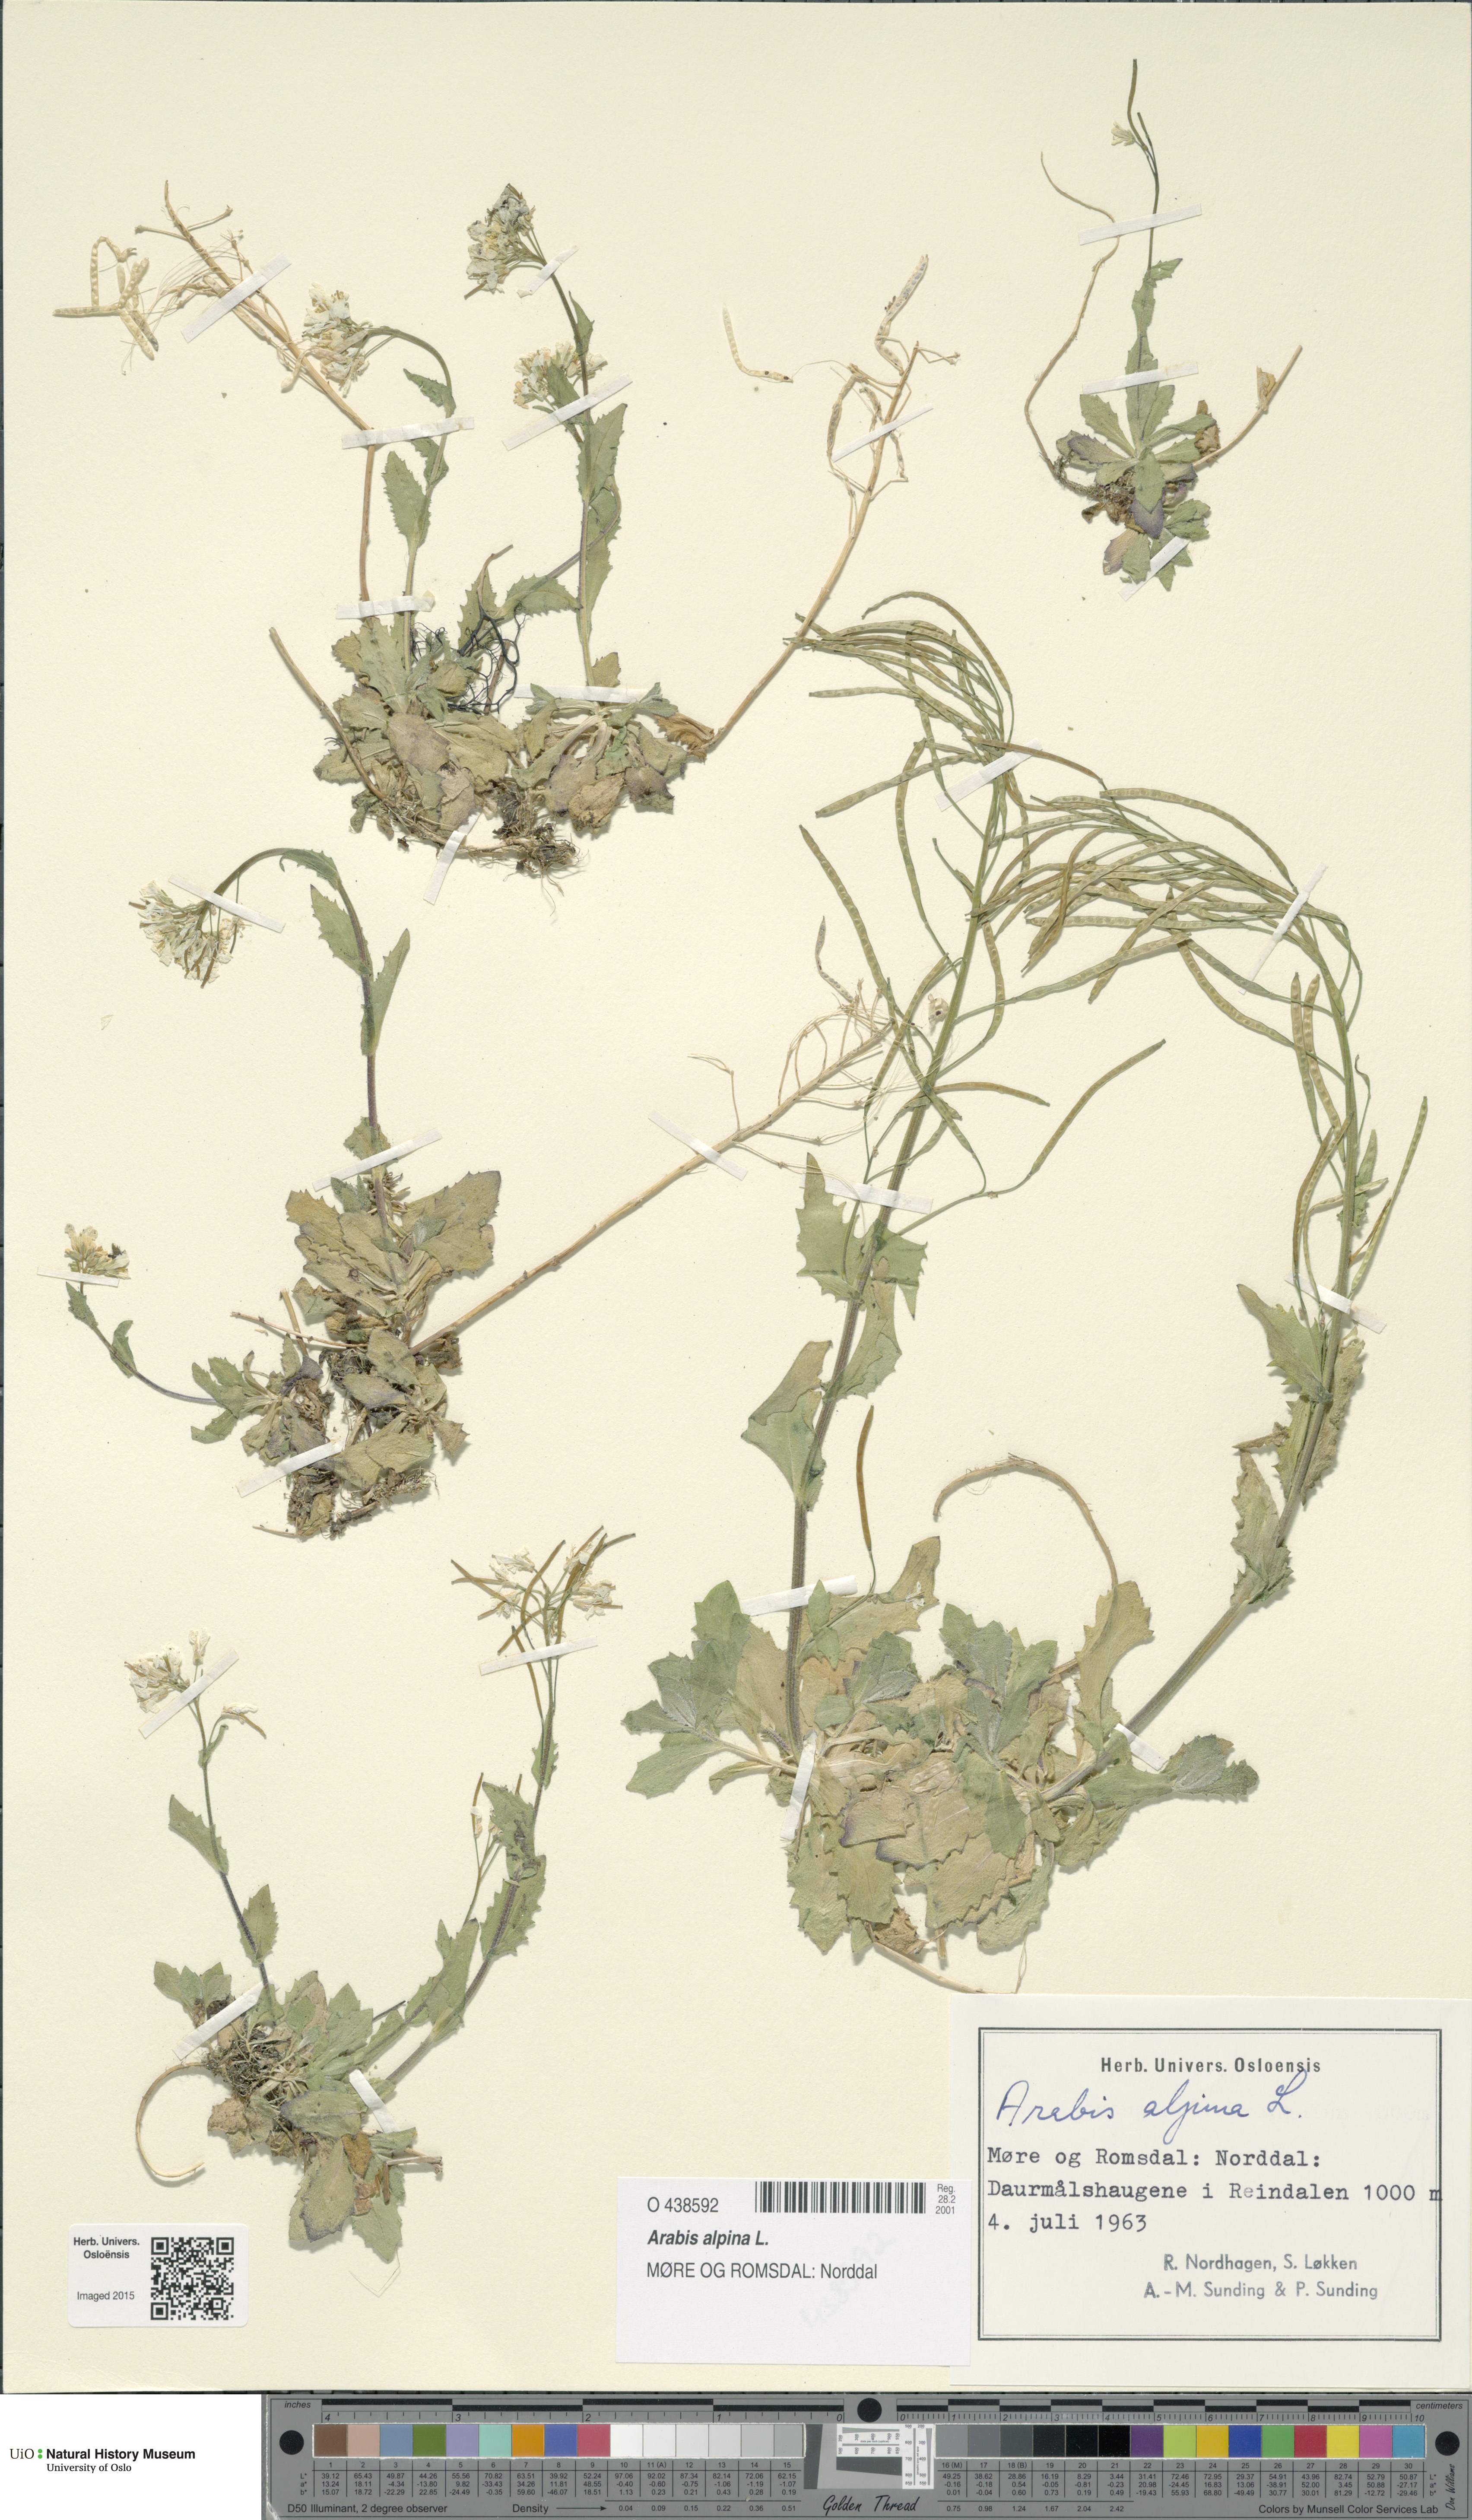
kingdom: Plantae
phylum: Tracheophyta
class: Magnoliopsida
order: Brassicales
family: Brassicaceae
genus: Arabis
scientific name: Arabis alpina
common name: Alpine rock-cress
